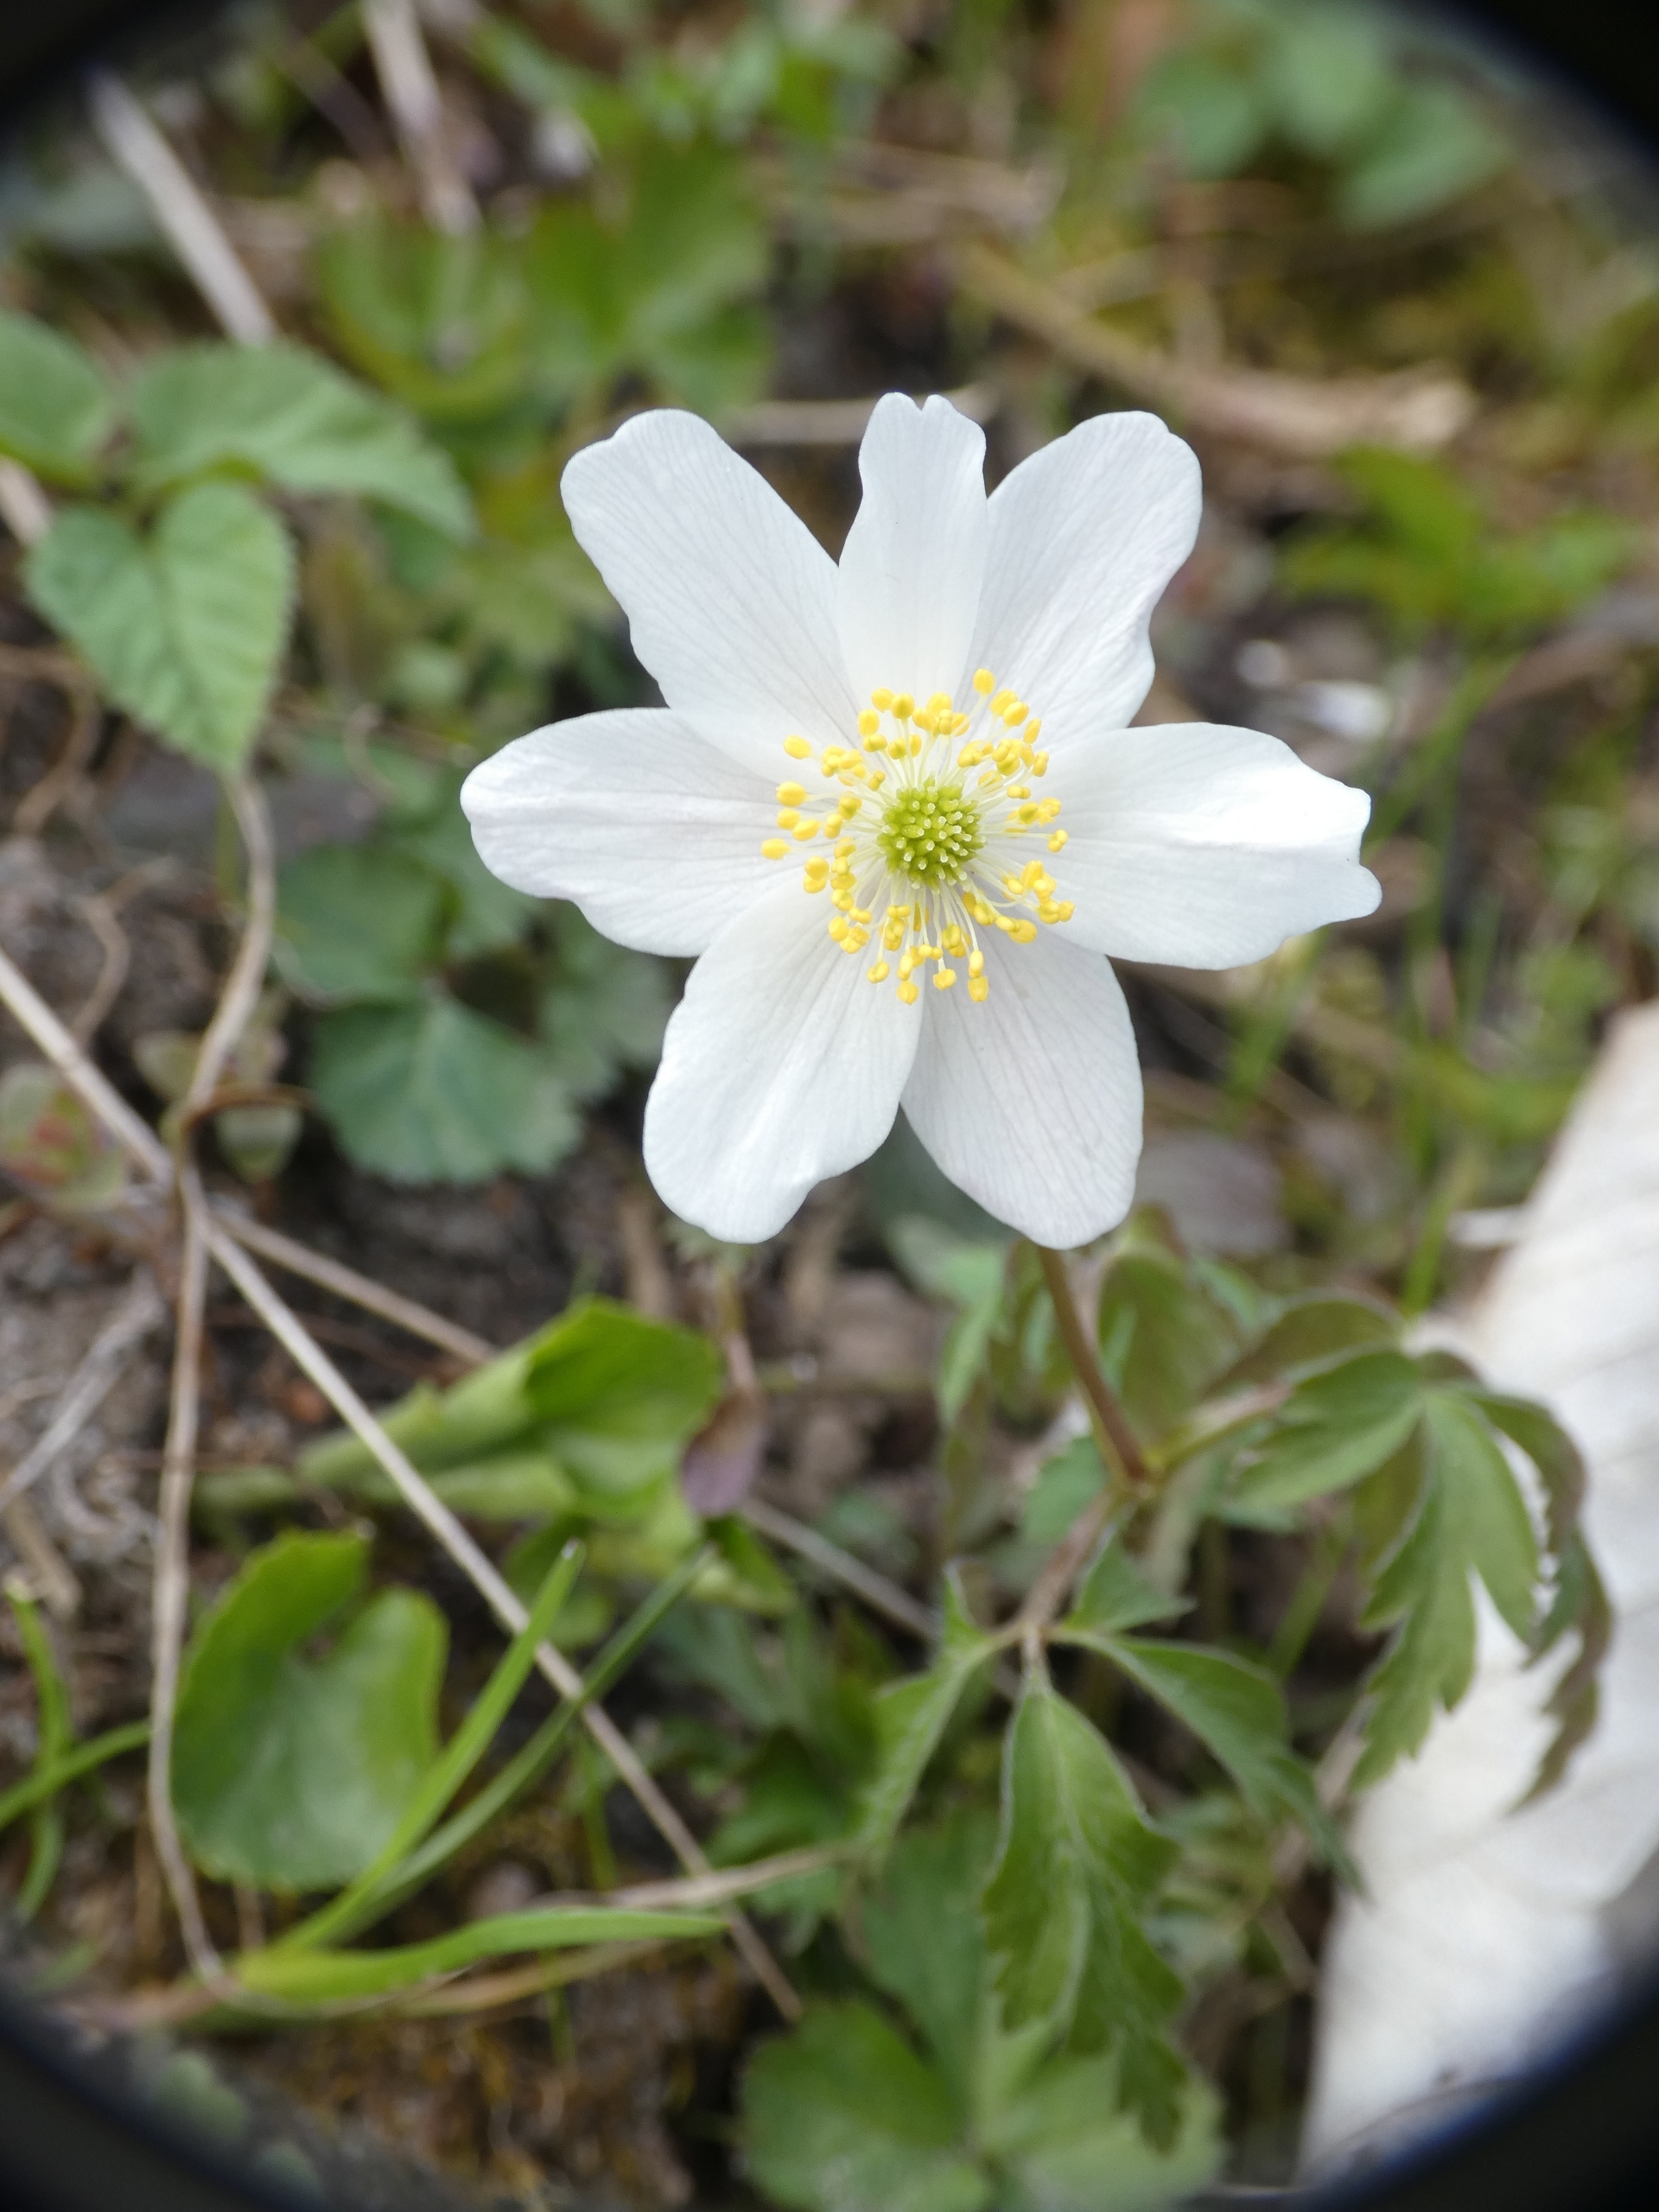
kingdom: Plantae
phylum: Tracheophyta
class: Magnoliopsida
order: Ranunculales
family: Ranunculaceae
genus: Anemone
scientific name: Anemone nemorosa
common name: Hvid anemone
